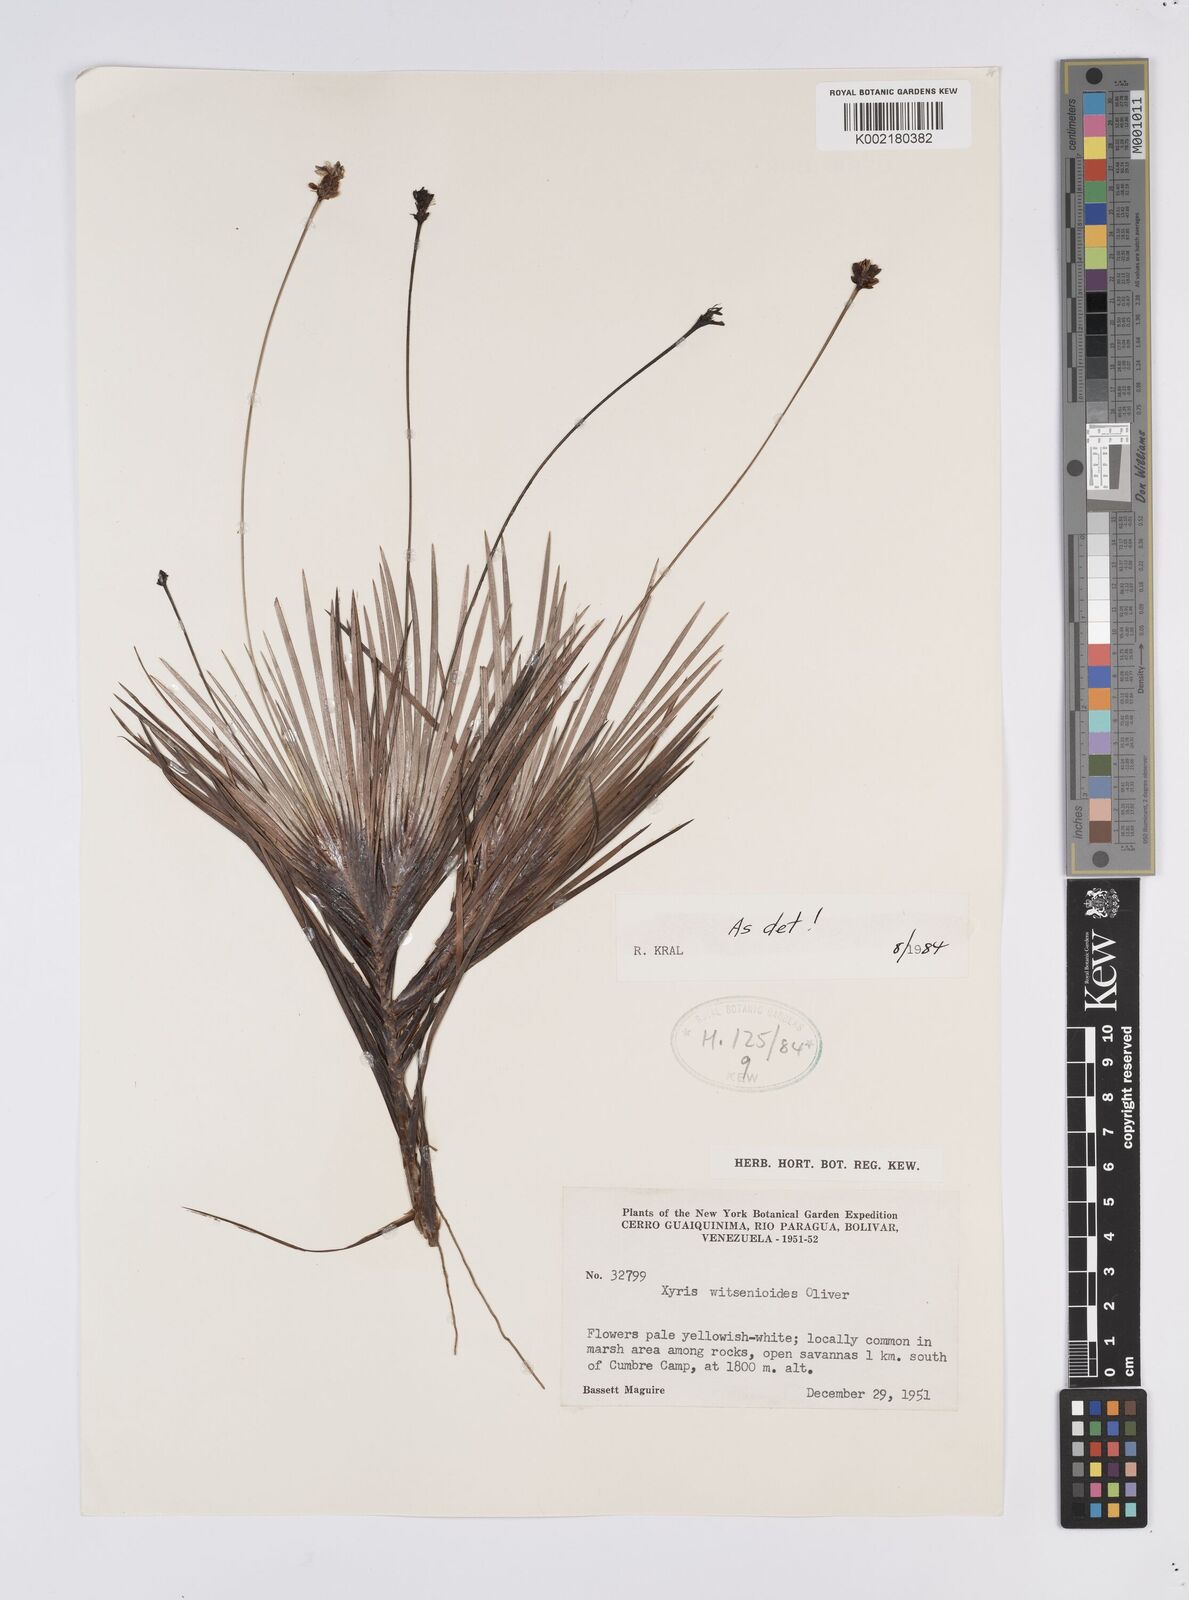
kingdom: Plantae
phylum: Tracheophyta
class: Liliopsida
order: Poales
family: Xyridaceae
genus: Xyris
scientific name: Xyris witsenioides
